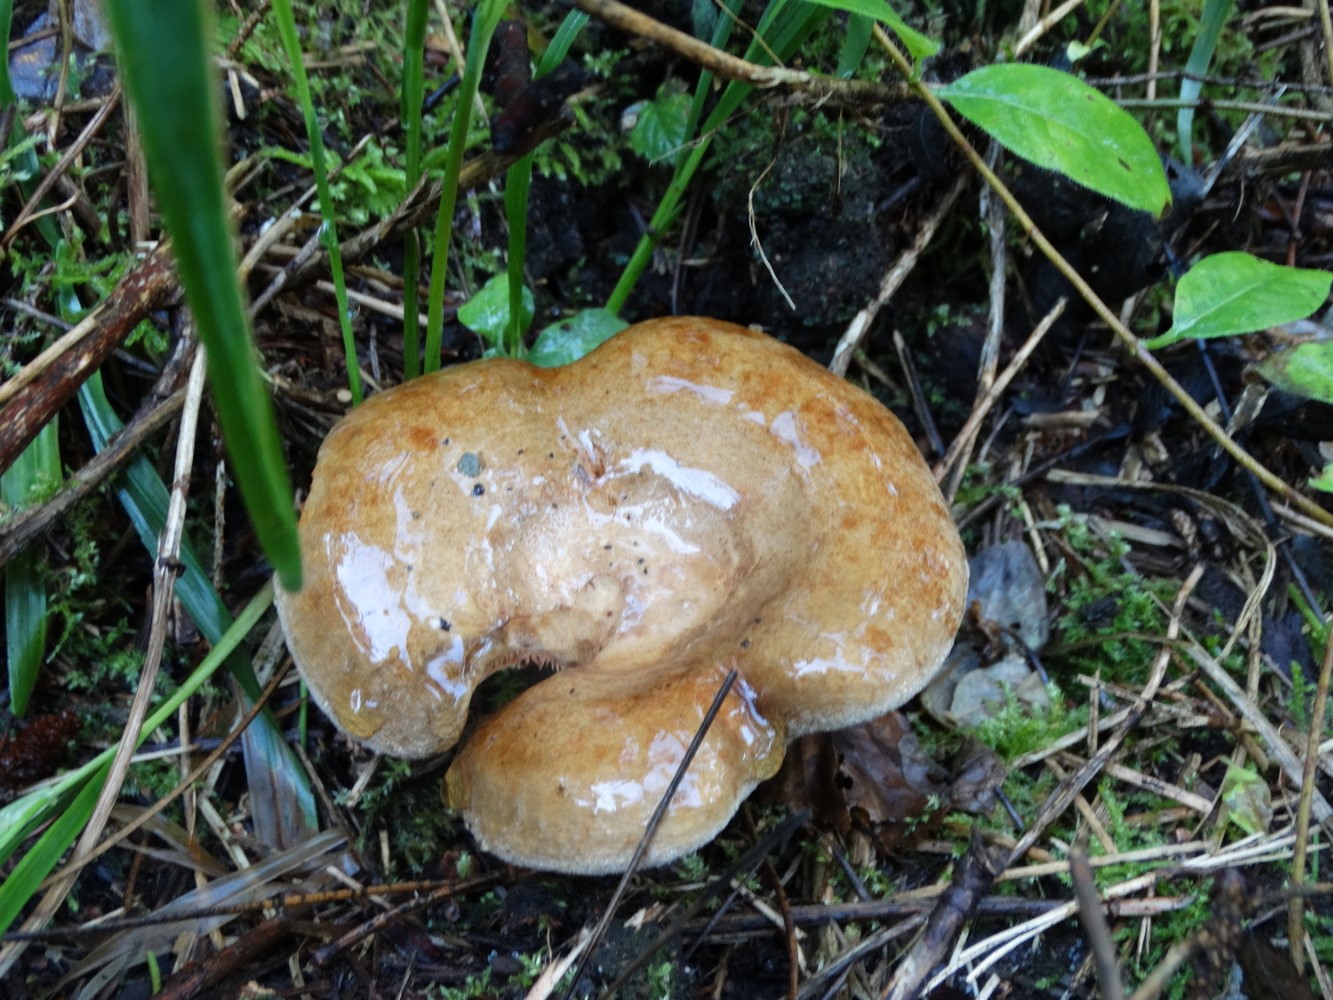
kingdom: Fungi
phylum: Basidiomycota
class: Agaricomycetes
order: Boletales
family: Paxillaceae
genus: Paxillus
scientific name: Paxillus involutus
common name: almindelig netbladhat
